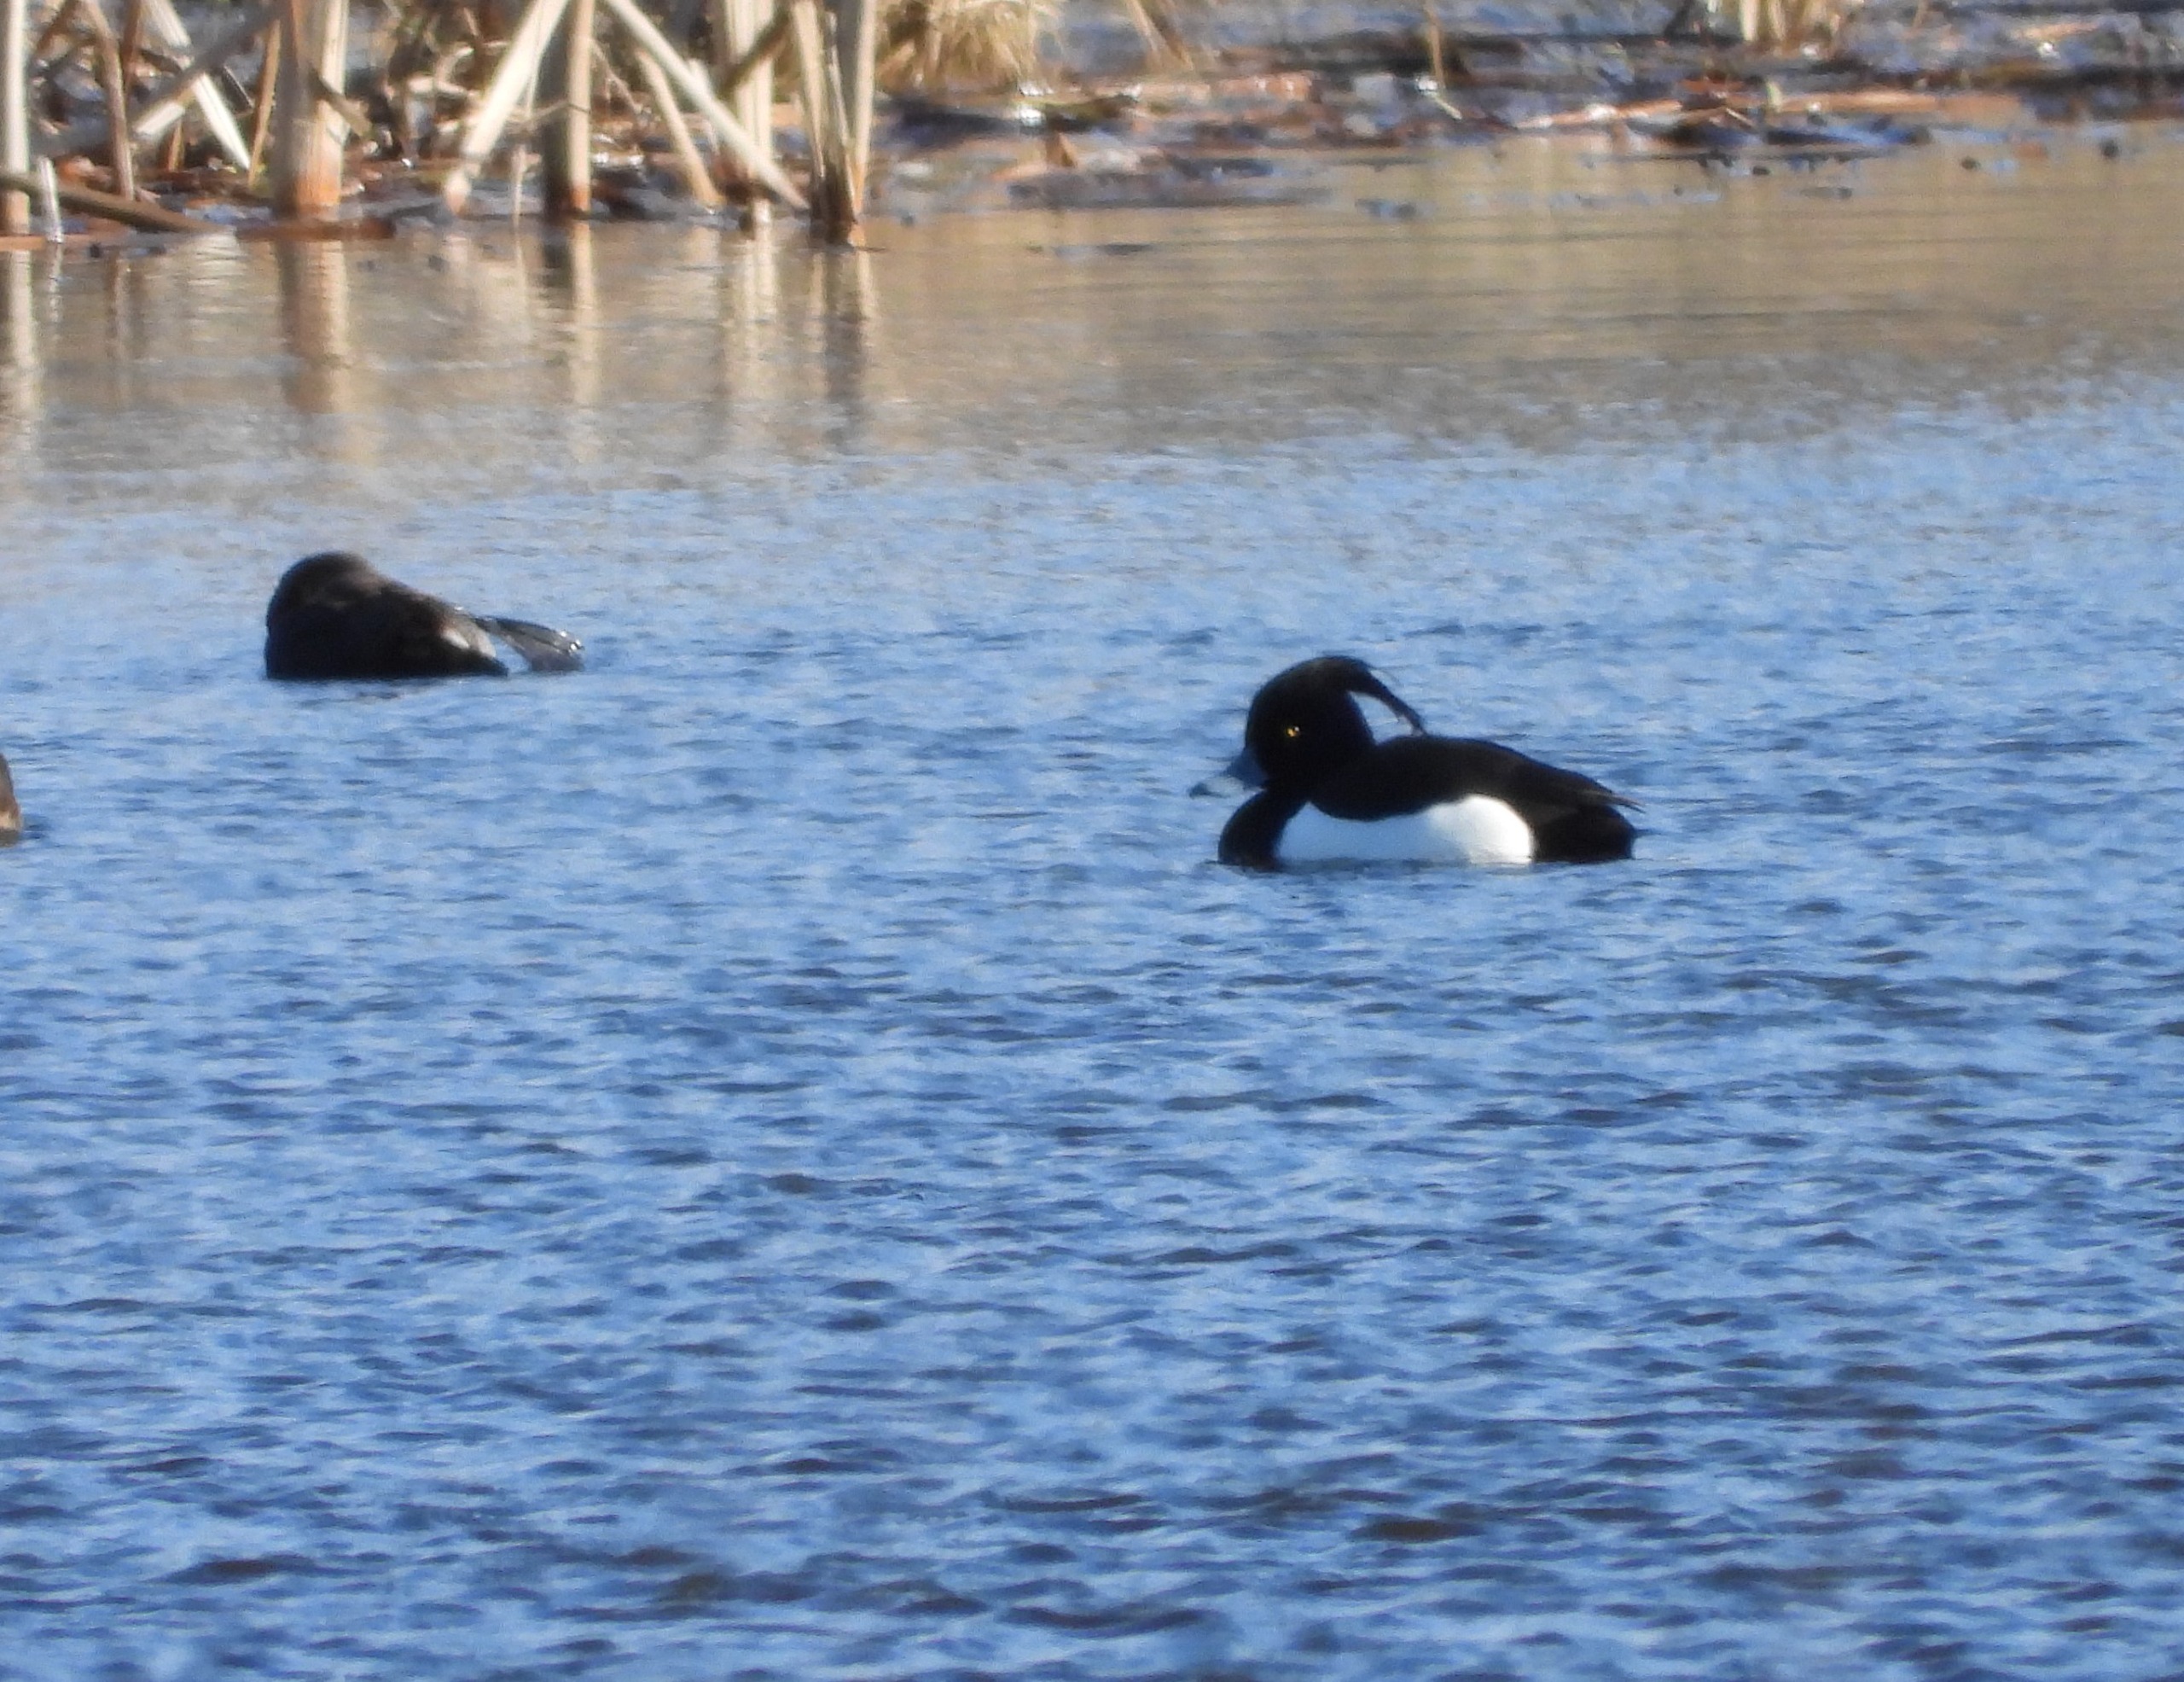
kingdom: Animalia
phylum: Chordata
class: Aves
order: Anseriformes
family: Anatidae
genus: Aythya
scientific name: Aythya fuligula
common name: Troldand
